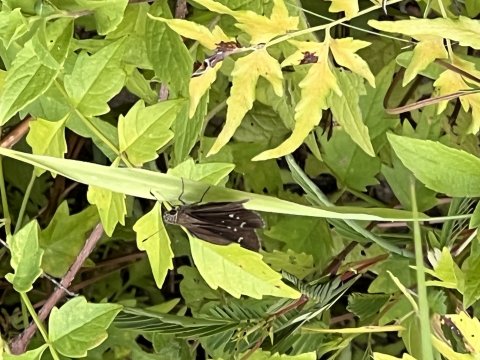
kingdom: Animalia
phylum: Arthropoda
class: Insecta
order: Lepidoptera
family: Hesperiidae
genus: Lerema
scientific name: Lerema accius
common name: Clouded Skipper
